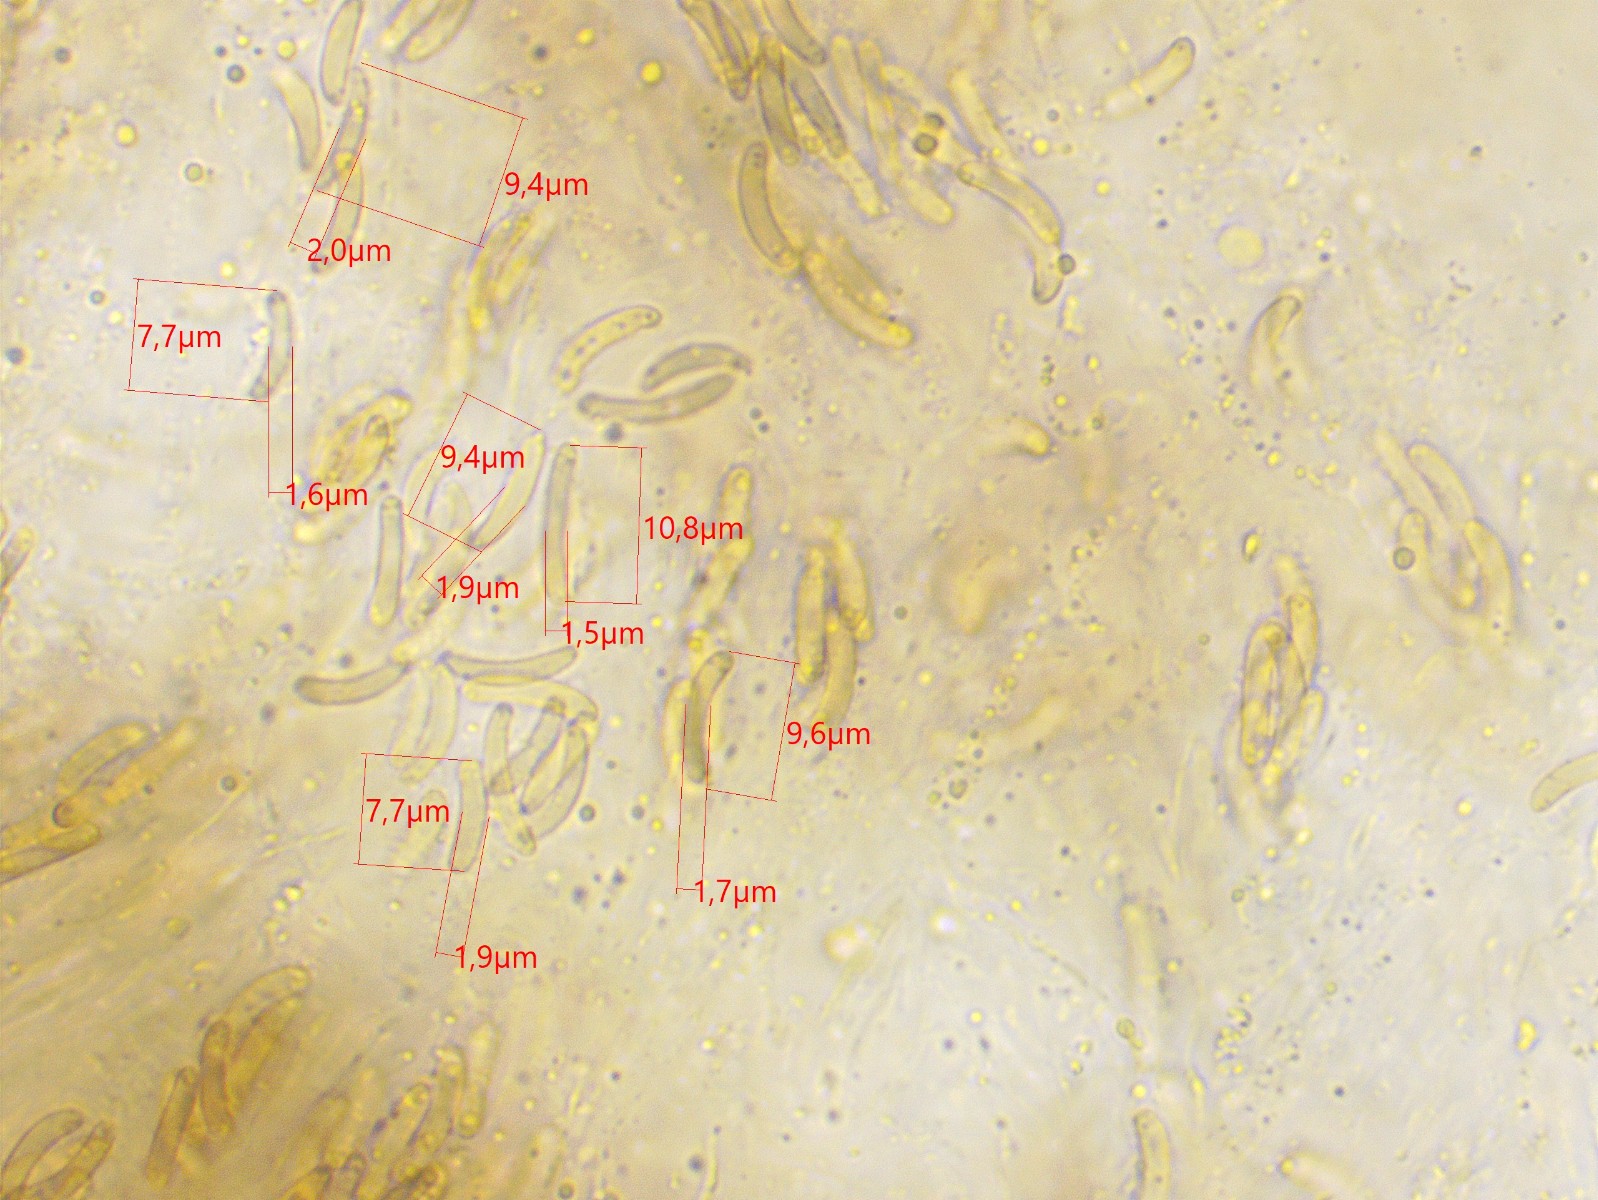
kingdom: Fungi
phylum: Ascomycota
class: Sordariomycetes
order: Xylariales
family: Diatrypaceae
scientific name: Diatrypaceae
